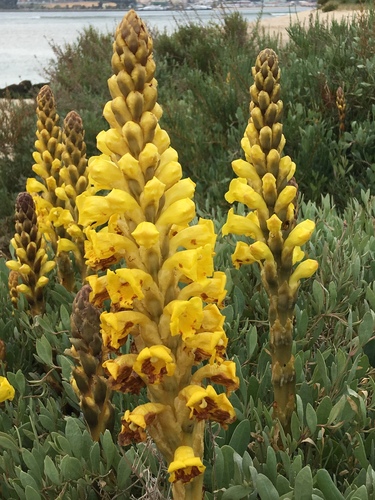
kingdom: Plantae
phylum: Tracheophyta
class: Magnoliopsida
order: Lamiales
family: Orobanchaceae
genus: Cistanche
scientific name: Cistanche phelypaea
